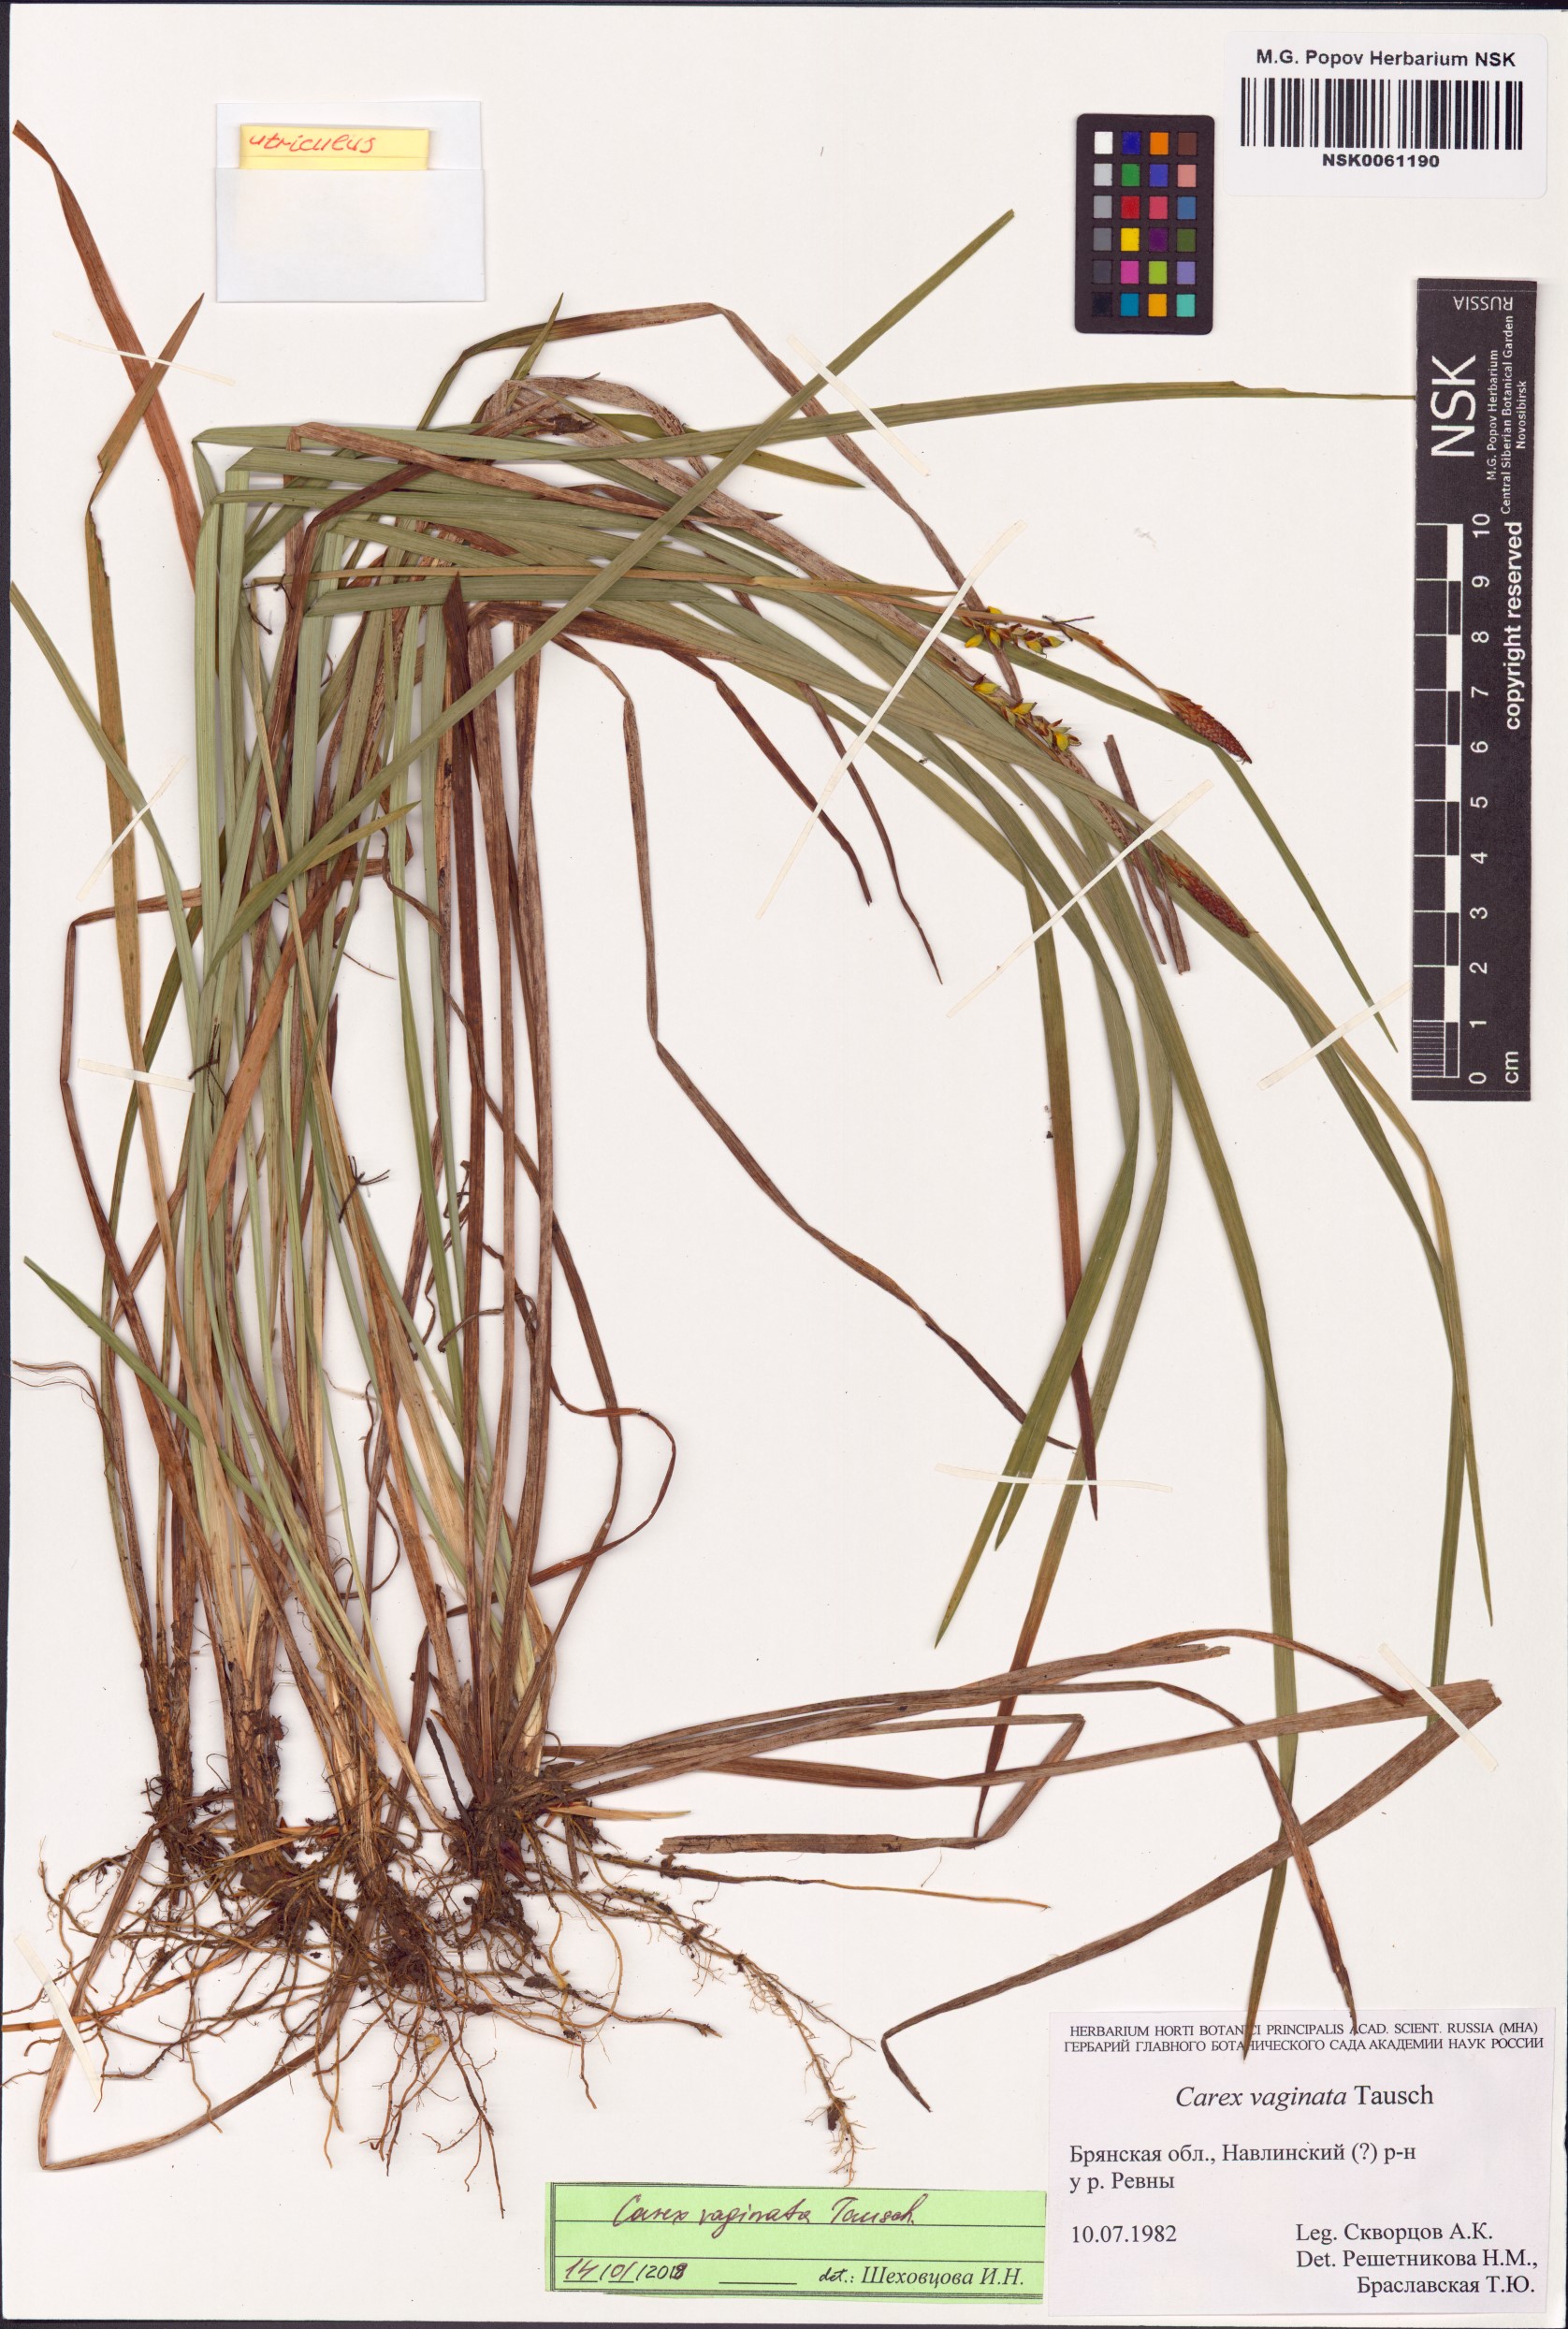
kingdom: Plantae
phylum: Tracheophyta
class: Liliopsida
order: Poales
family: Cyperaceae
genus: Carex
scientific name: Carex vaginata
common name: Sheathed sedge
